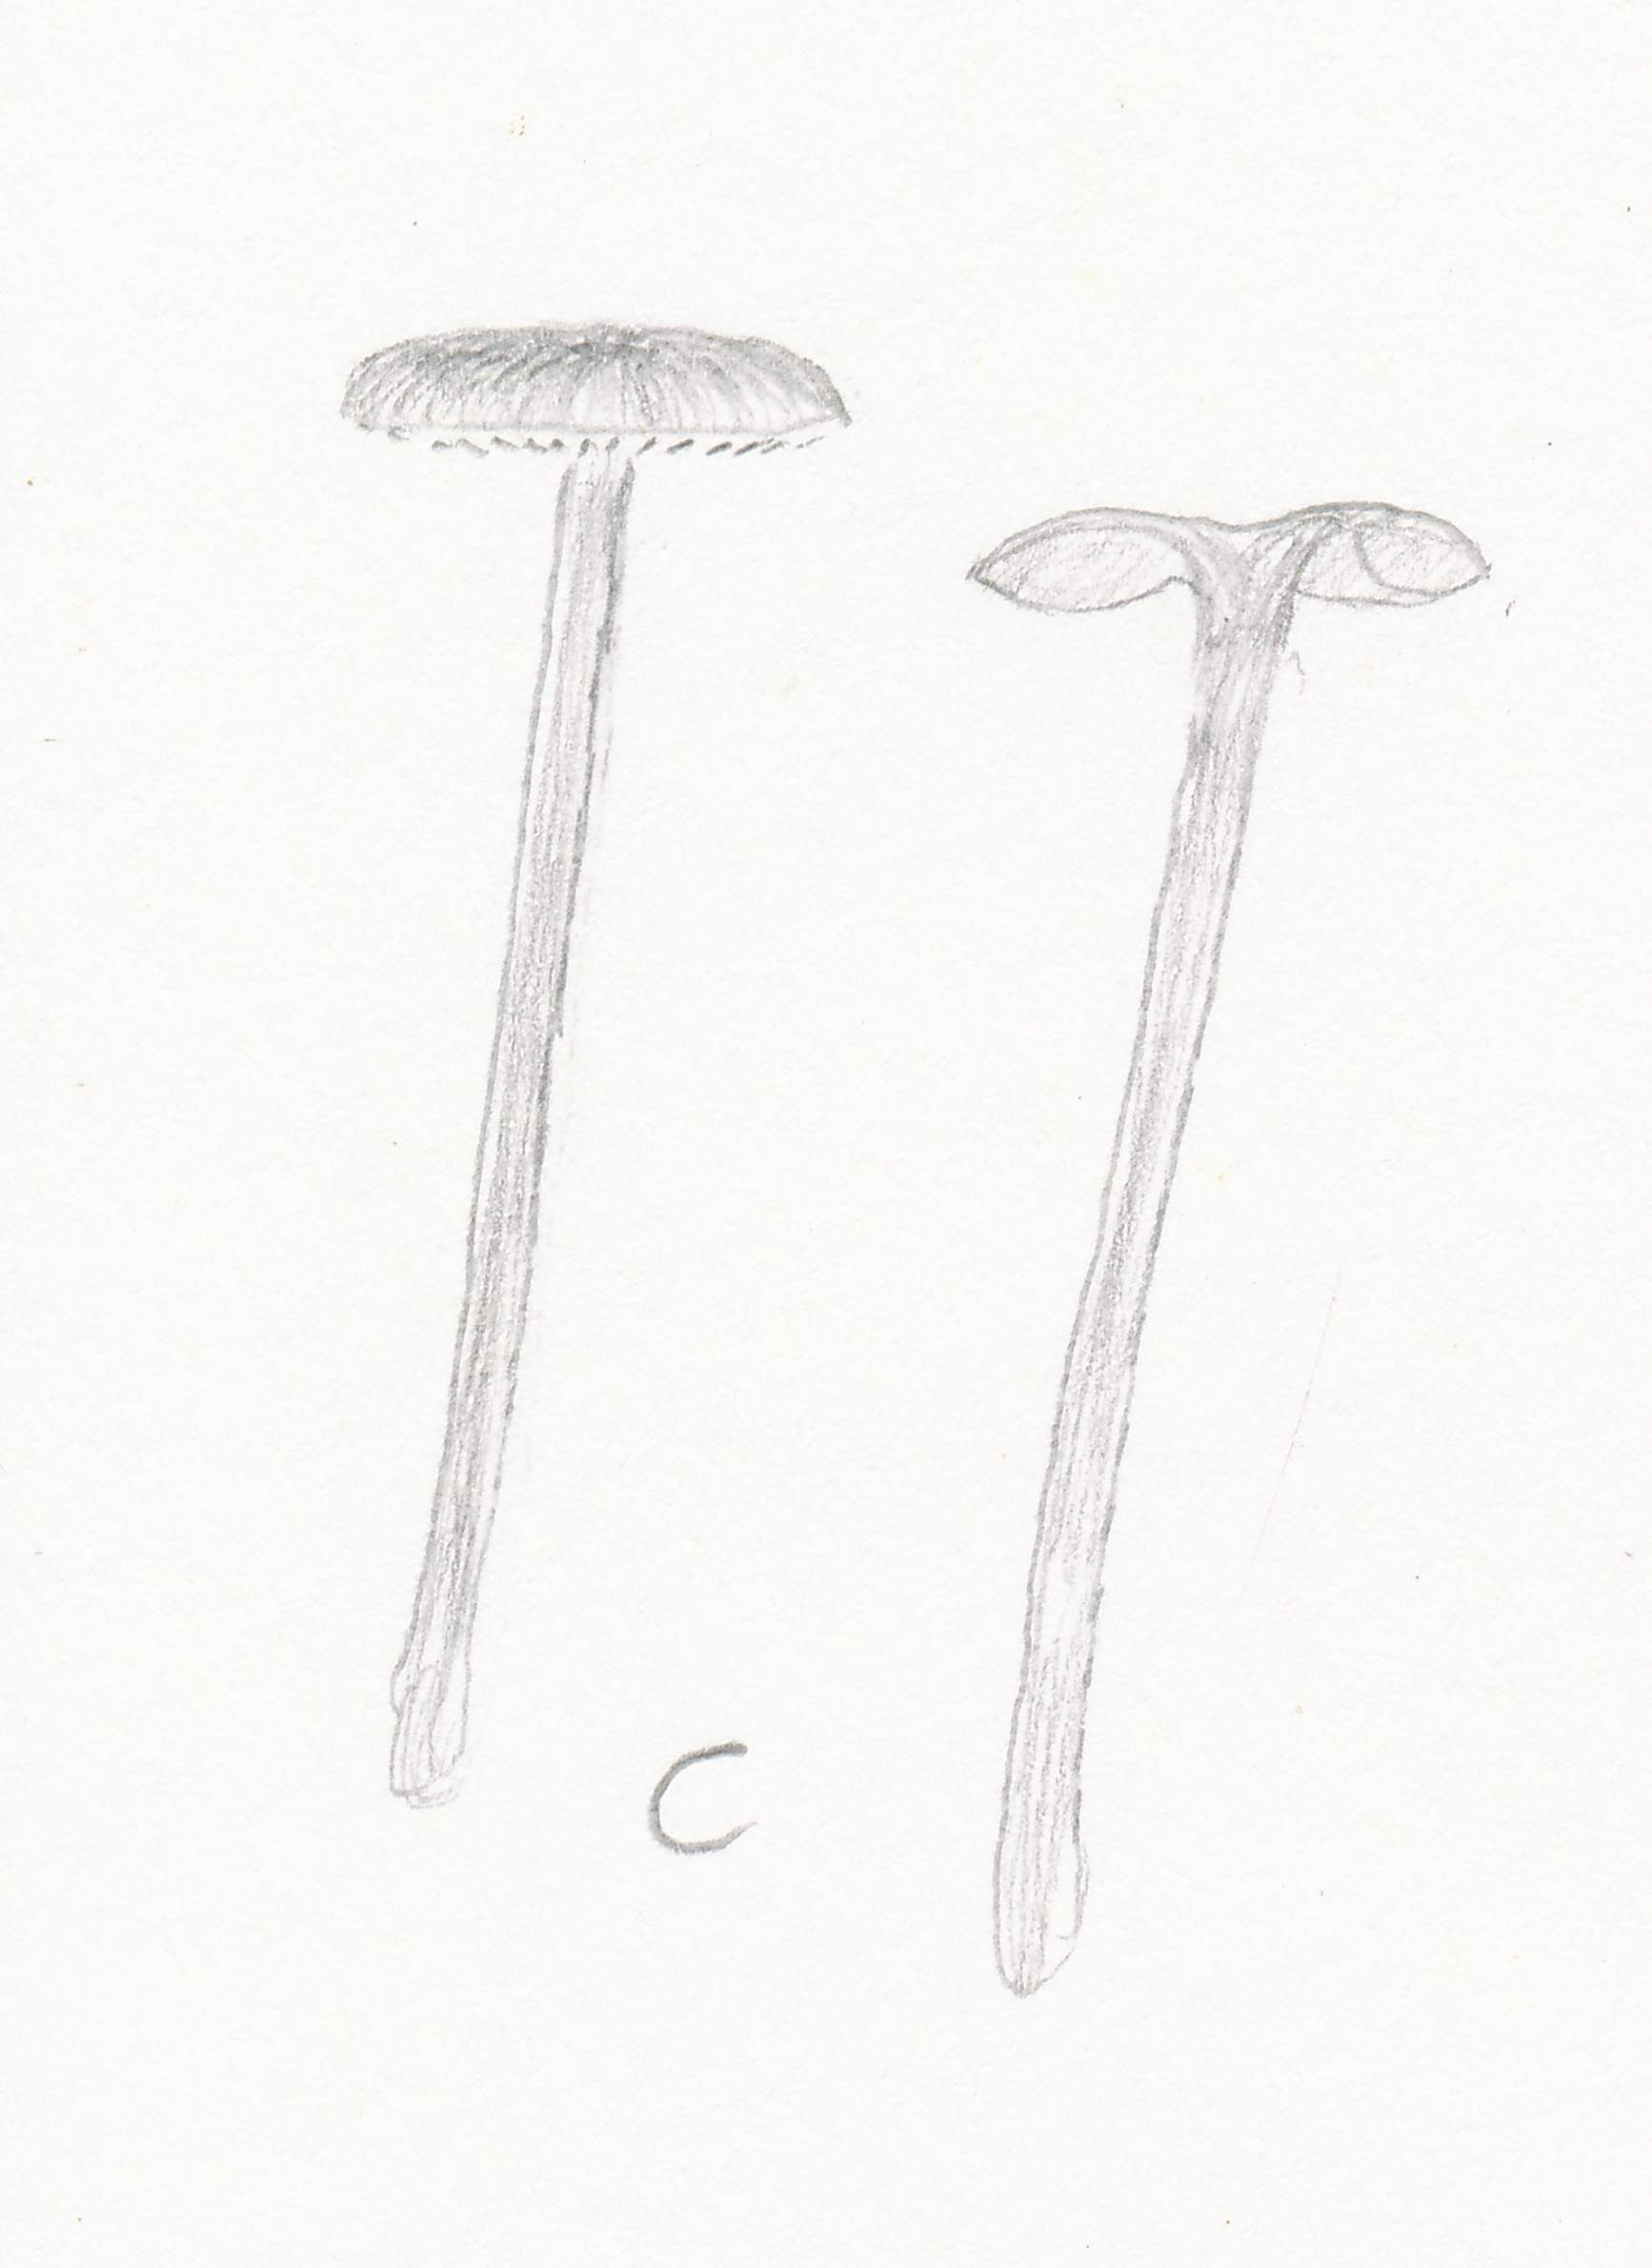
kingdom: Fungi
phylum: Basidiomycota
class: Agaricomycetes
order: Agaricales
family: Entolomataceae
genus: Entoloma
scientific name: Entoloma placidum
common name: bøge-rødblad
